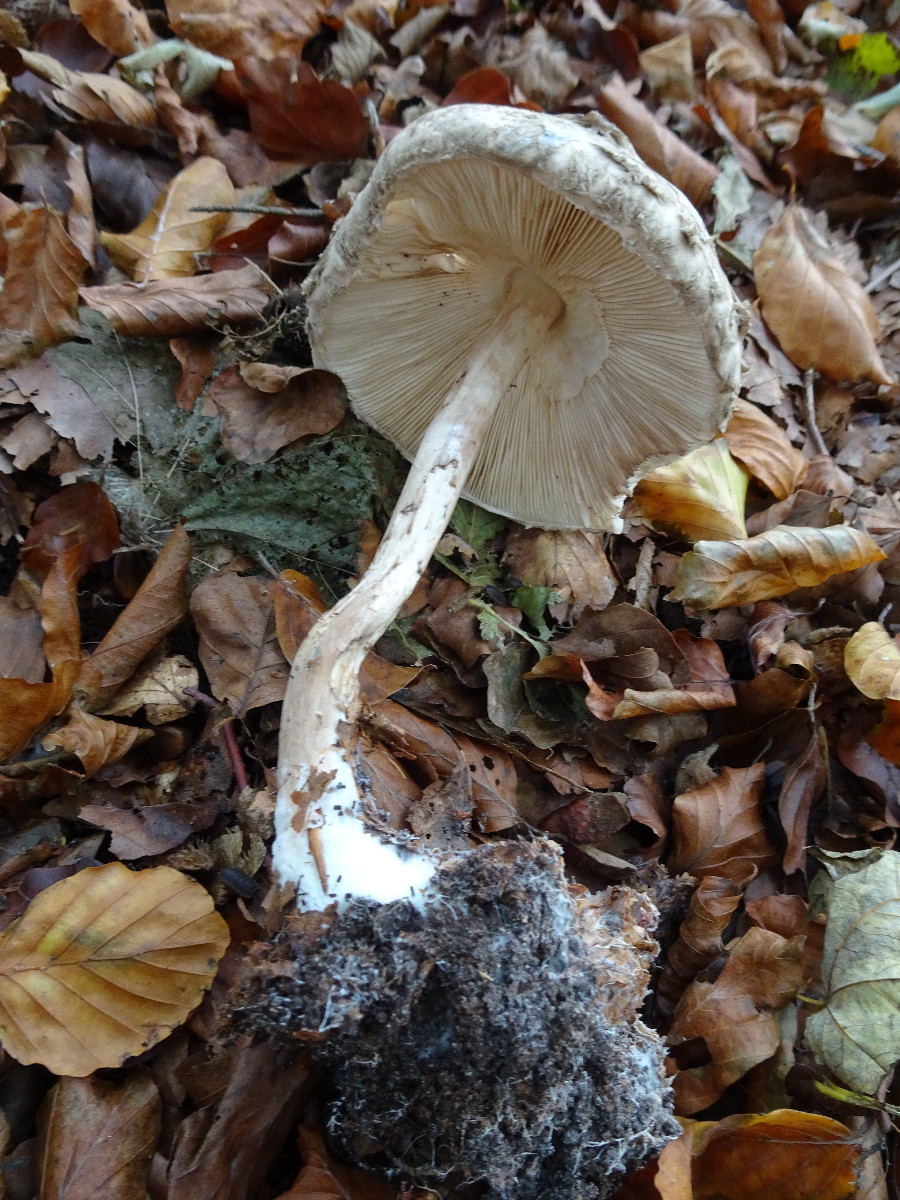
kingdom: Fungi
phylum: Basidiomycota
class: Agaricomycetes
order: Agaricales
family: Agaricaceae
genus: Chlorophyllum
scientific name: Chlorophyllum olivieri
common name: almindelig rabarberhat
